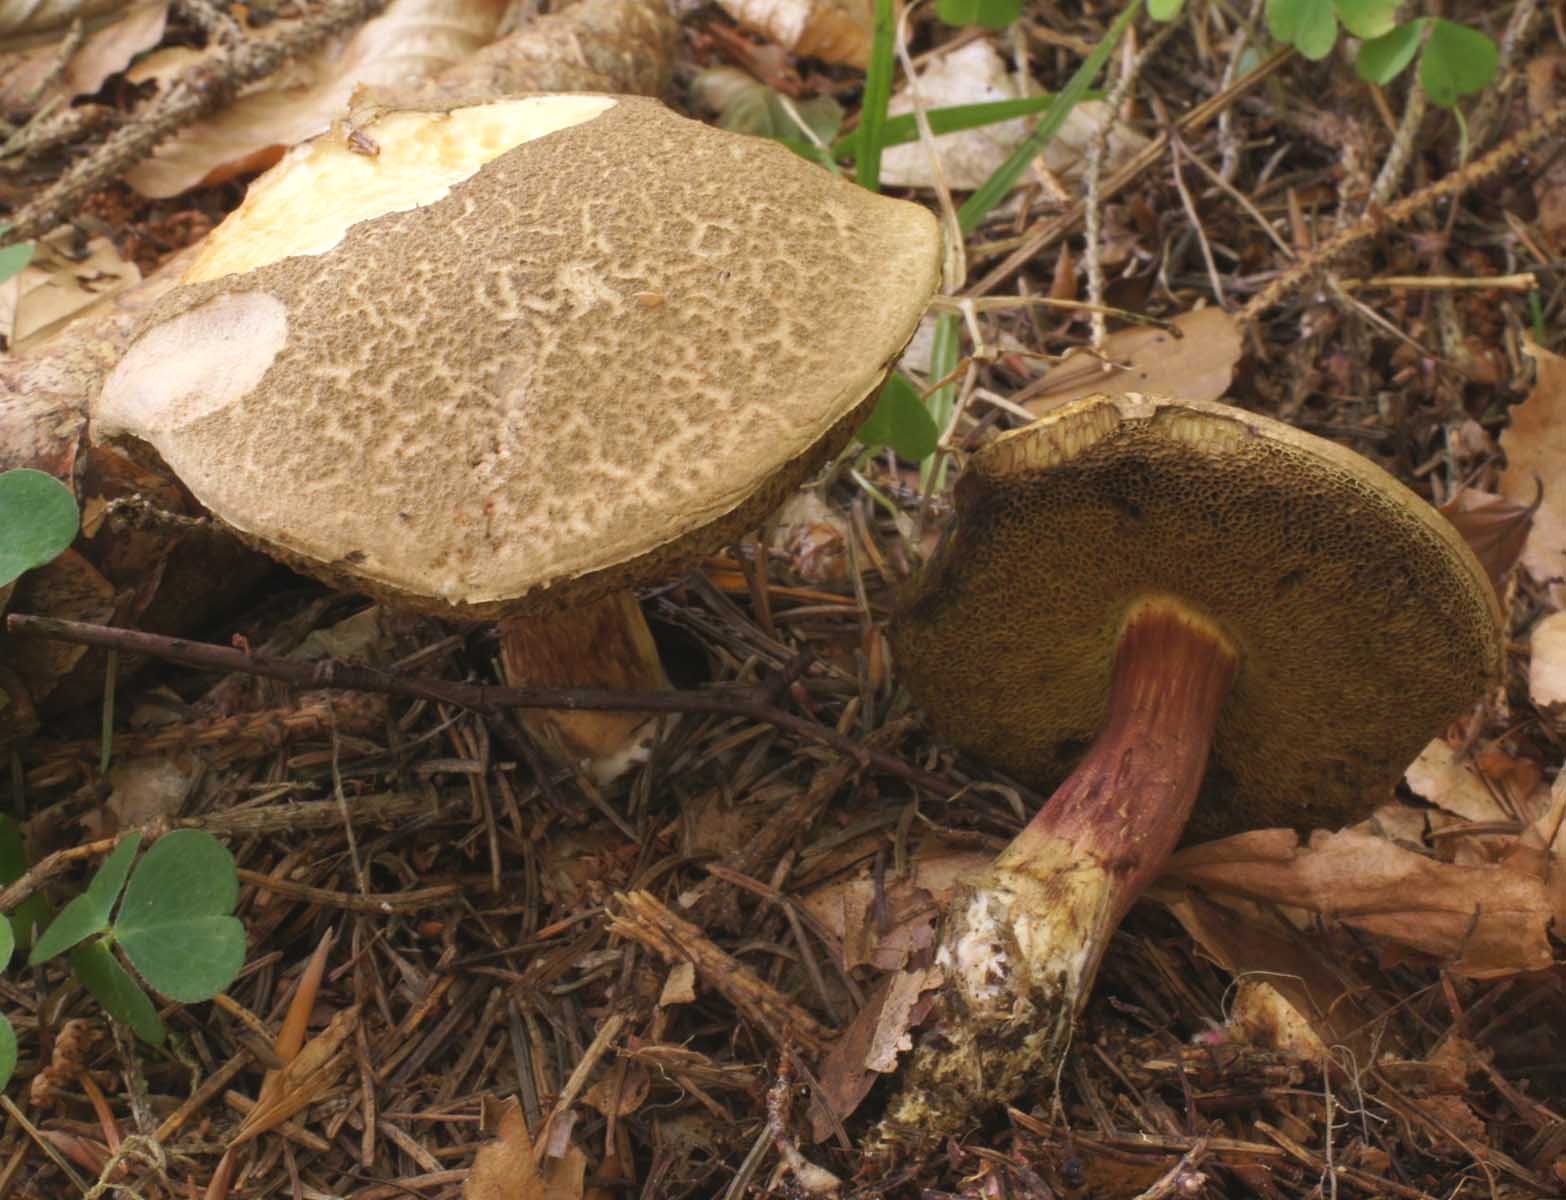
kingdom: Fungi
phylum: Basidiomycota
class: Agaricomycetes
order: Boletales
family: Boletaceae
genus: Xerocomellus
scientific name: Xerocomellus chrysenteron
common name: rødsprukken rørhat
